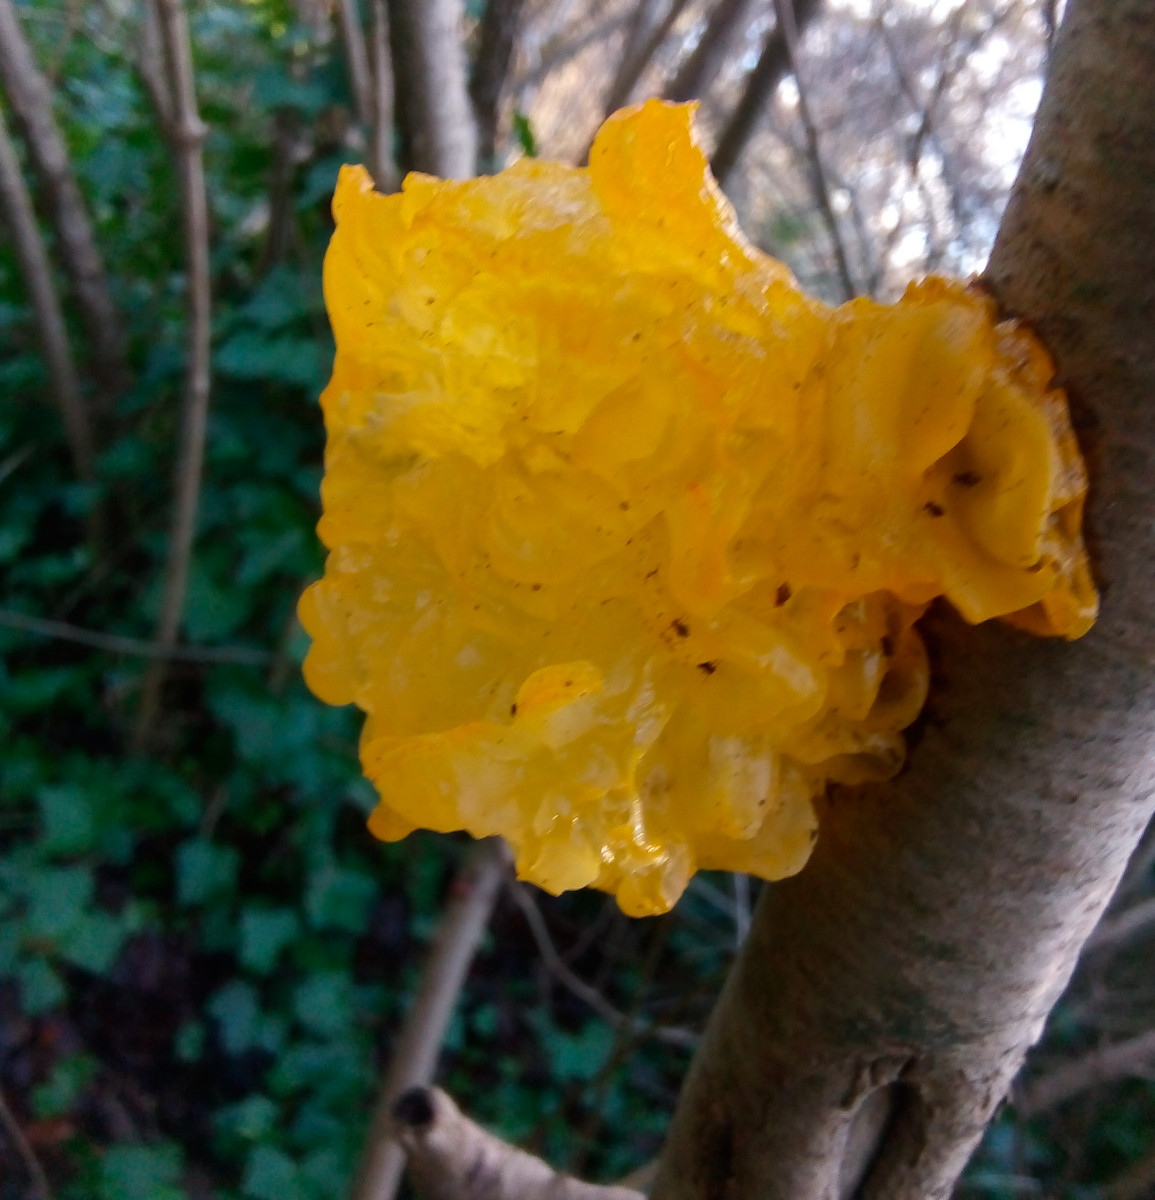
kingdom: Fungi
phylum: Basidiomycota
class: Tremellomycetes
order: Tremellales
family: Tremellaceae
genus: Tremella
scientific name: Tremella mesenterica
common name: gul bævresvamp
